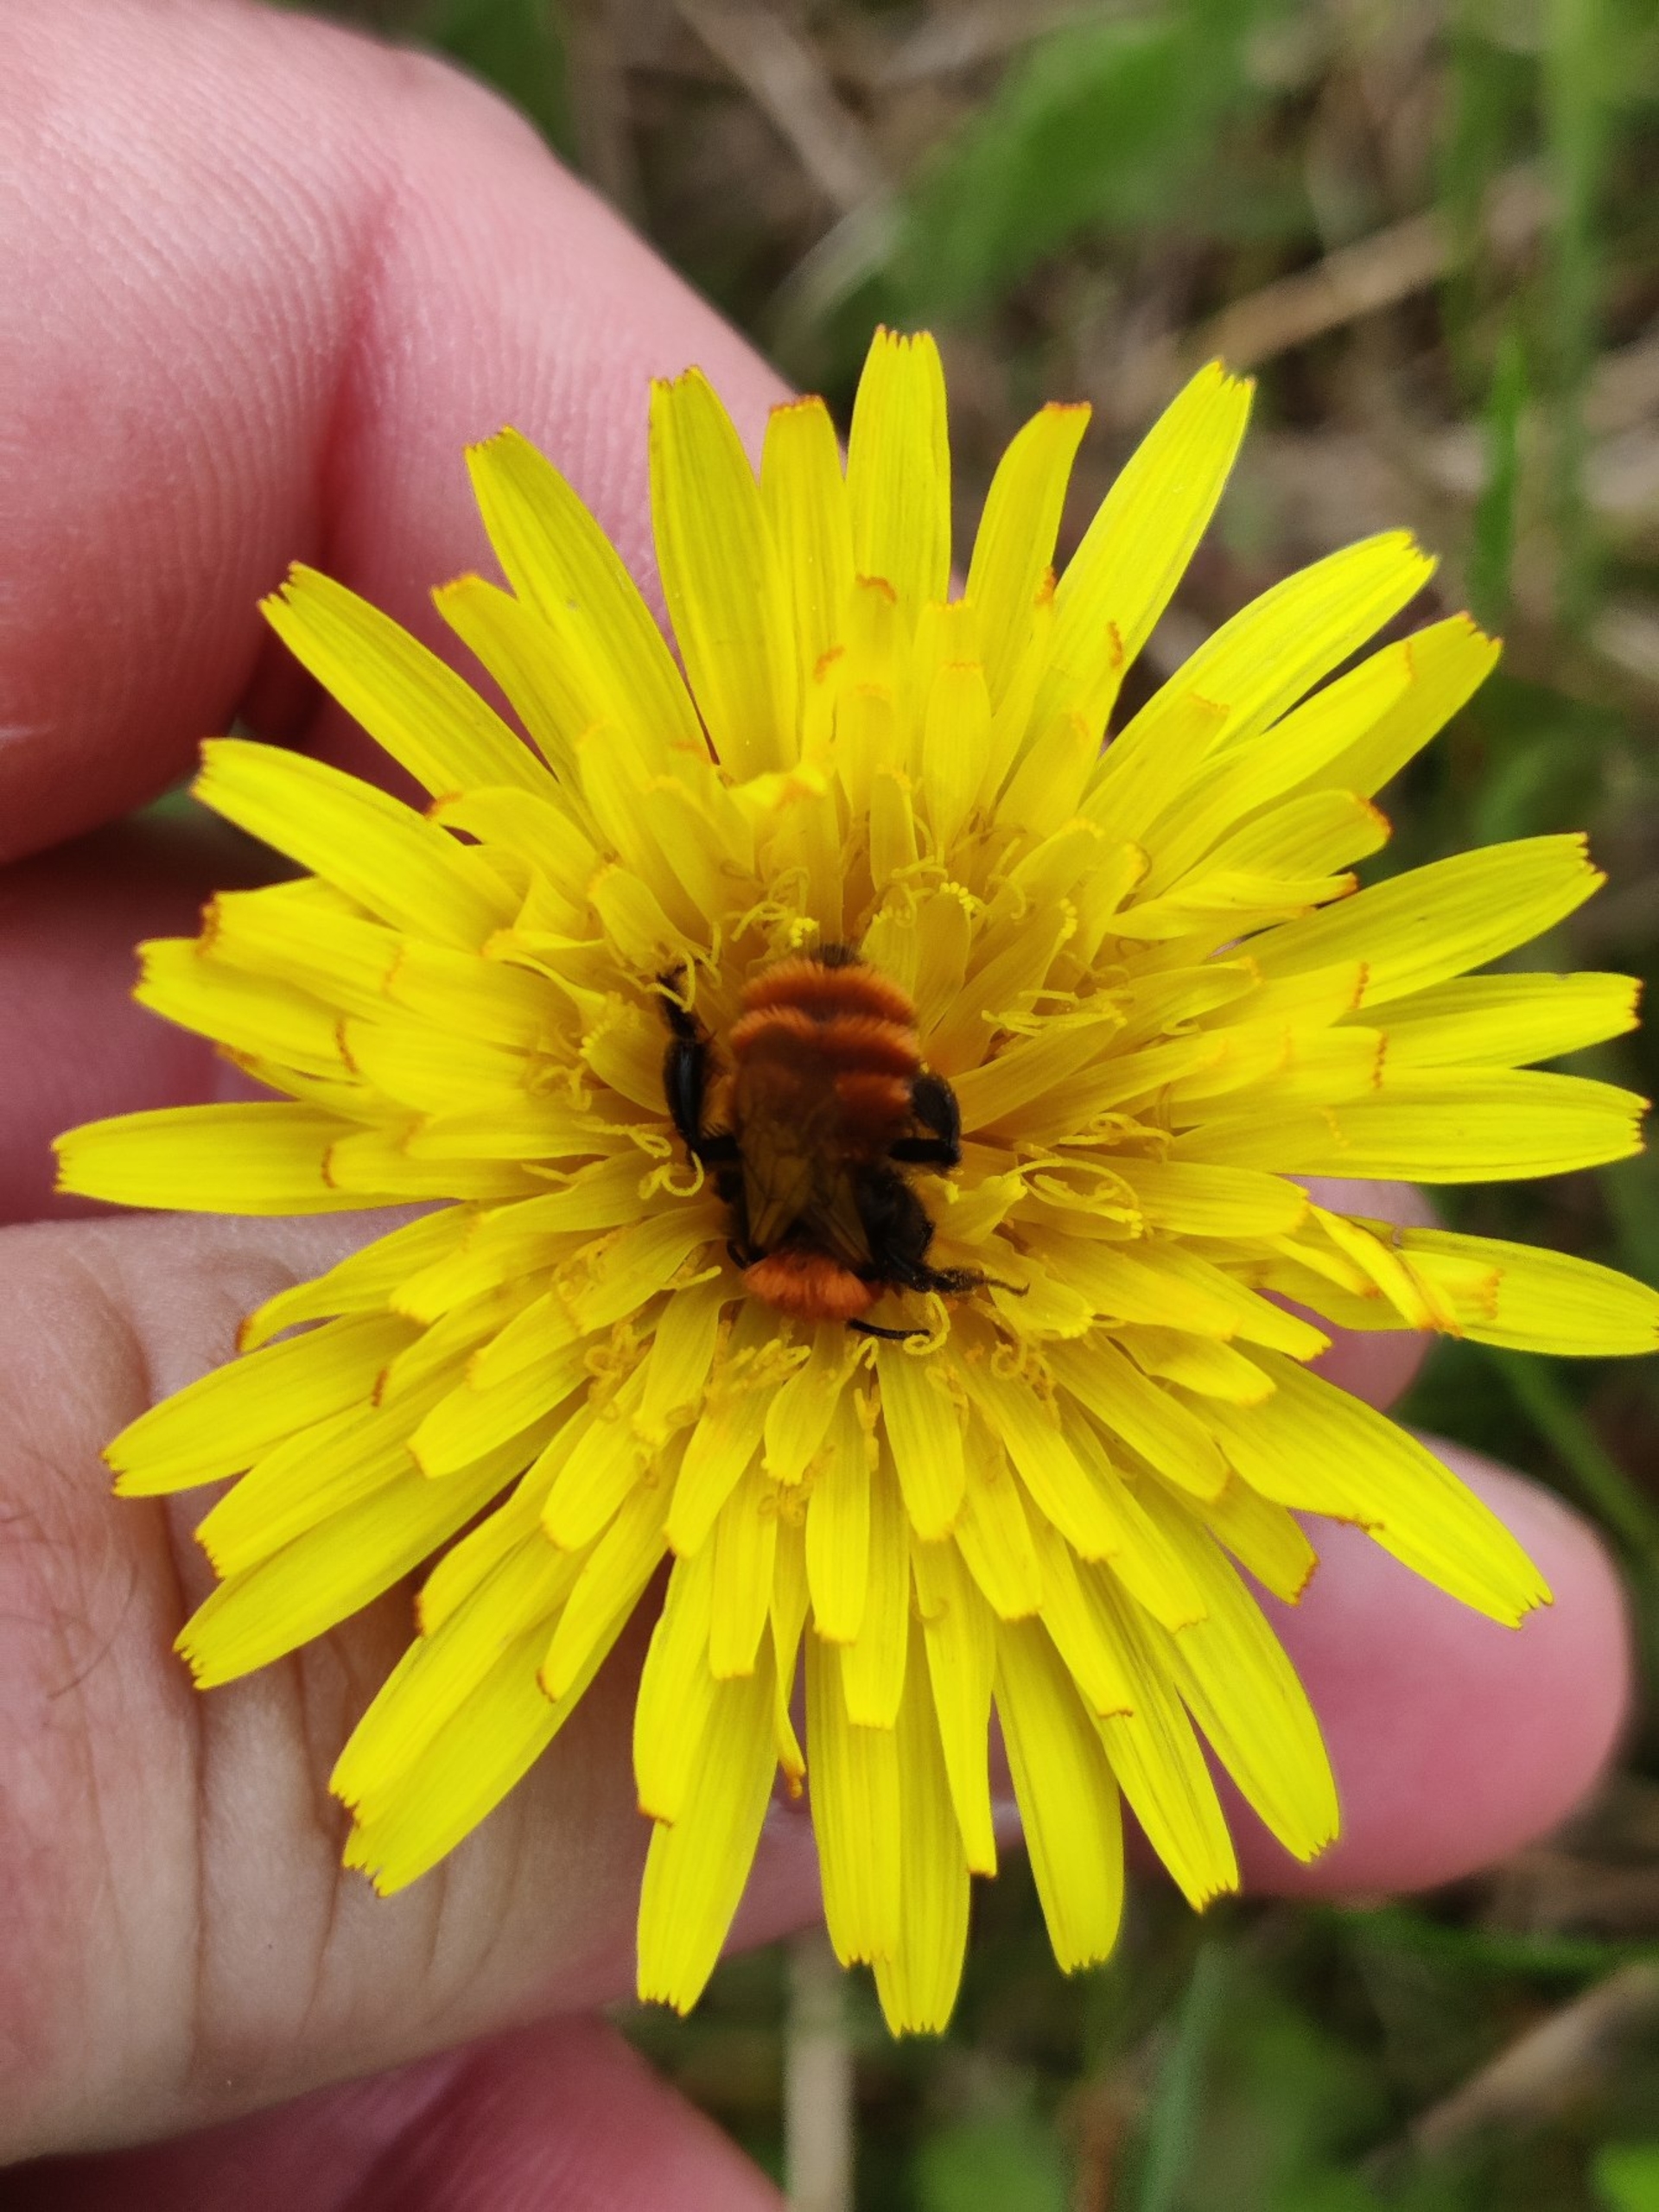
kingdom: Animalia
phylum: Arthropoda
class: Insecta
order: Hymenoptera
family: Andrenidae
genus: Andrena
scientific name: Andrena fulva
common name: Rødpelset jordbi
